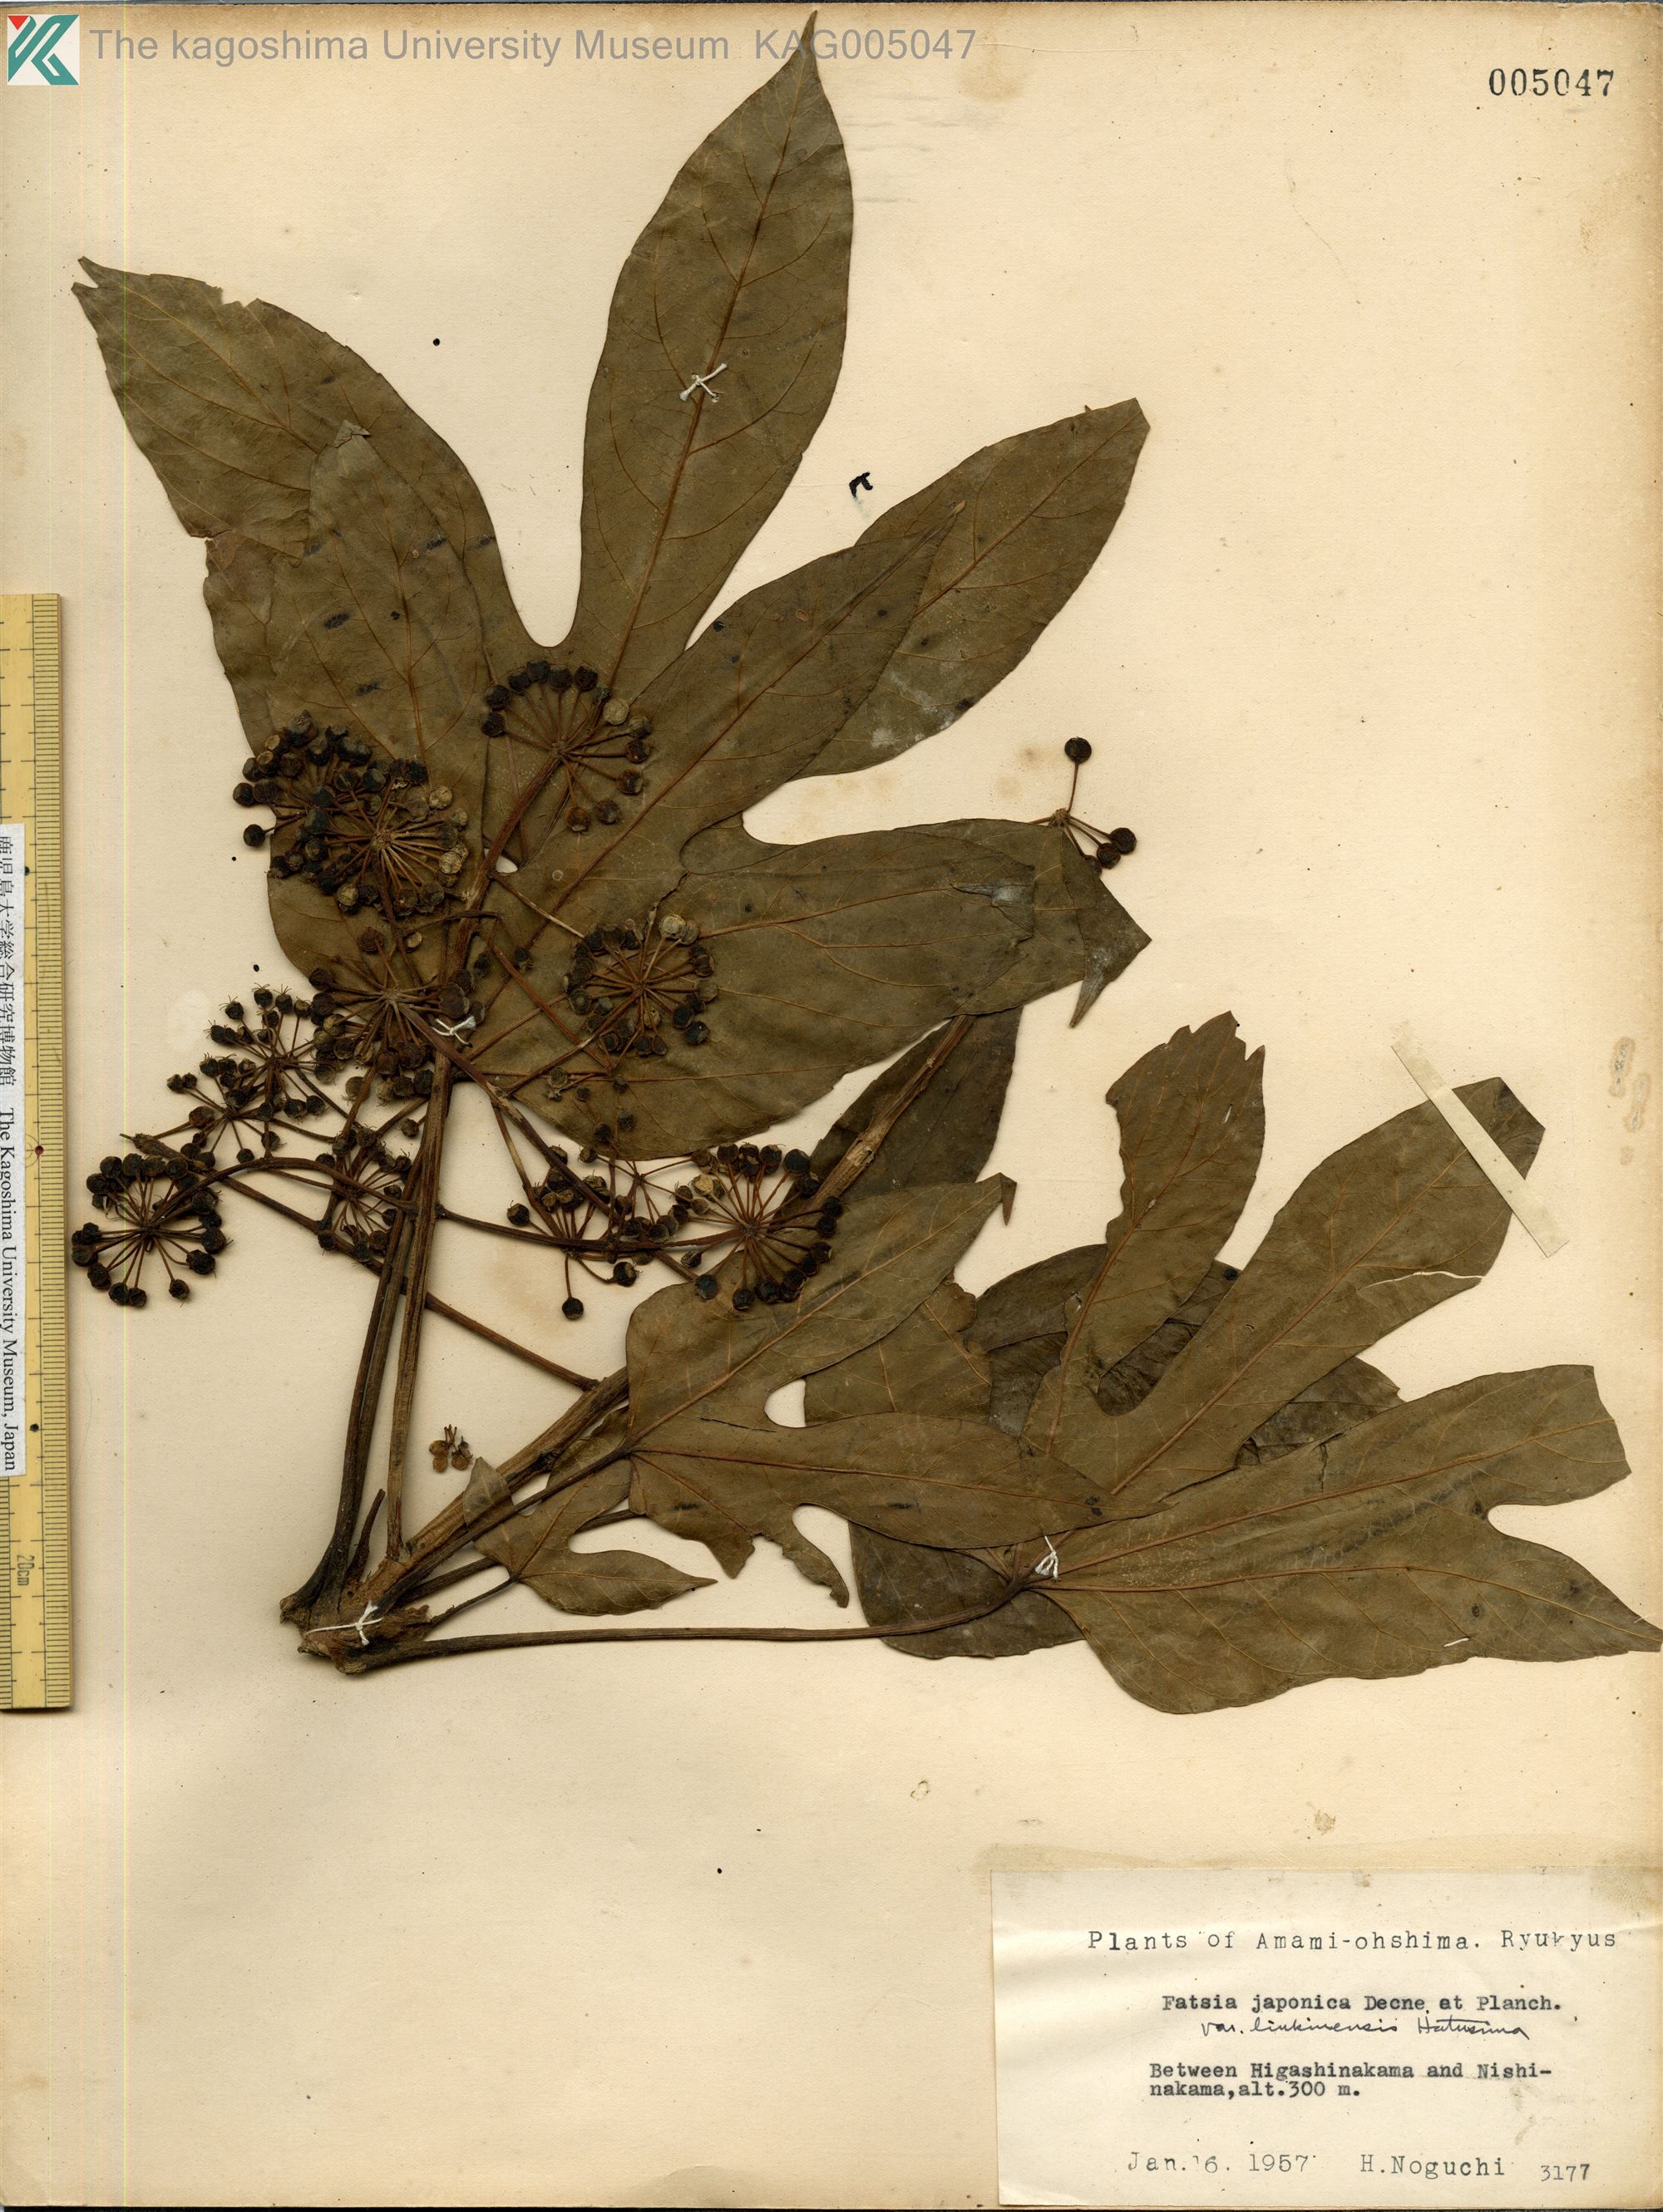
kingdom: Plantae
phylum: Tracheophyta
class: Magnoliopsida
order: Apiales
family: Araliaceae
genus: Fatsia
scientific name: Fatsia japonica
